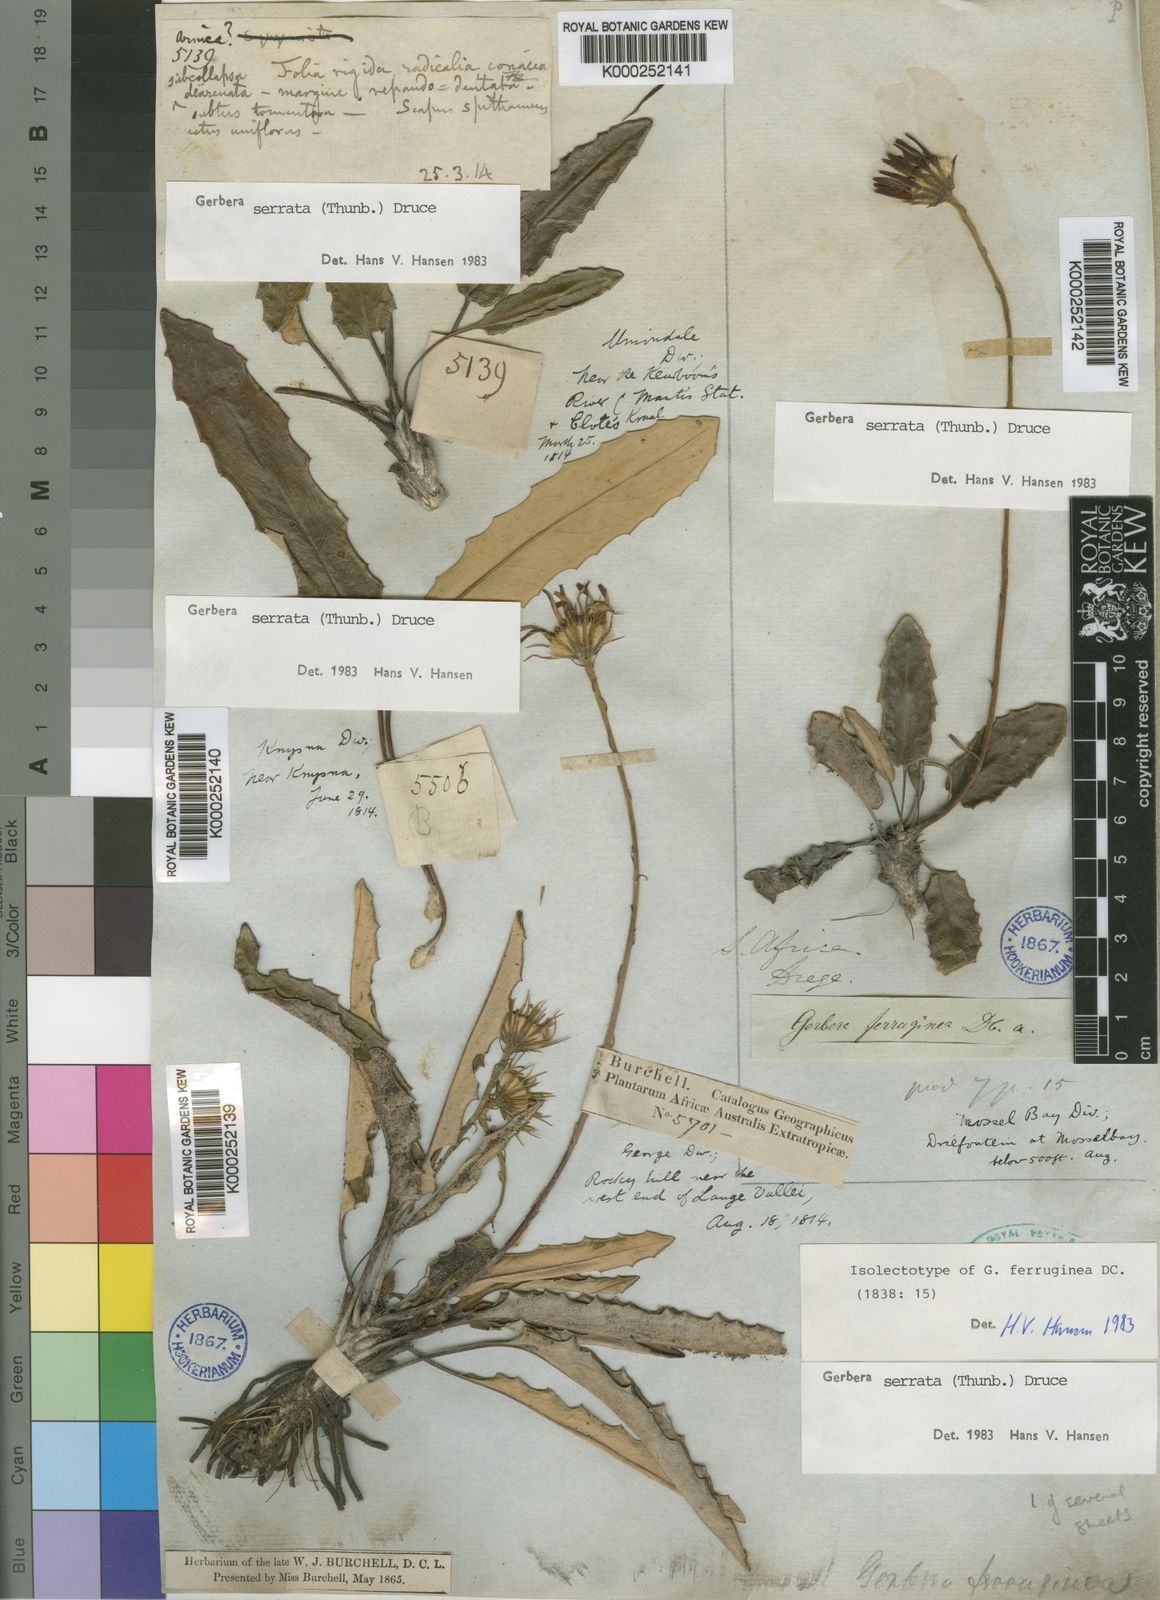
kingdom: Plantae
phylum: Tracheophyta
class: Magnoliopsida
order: Asterales
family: Asteraceae
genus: Gerbera
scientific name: Gerbera serrata
